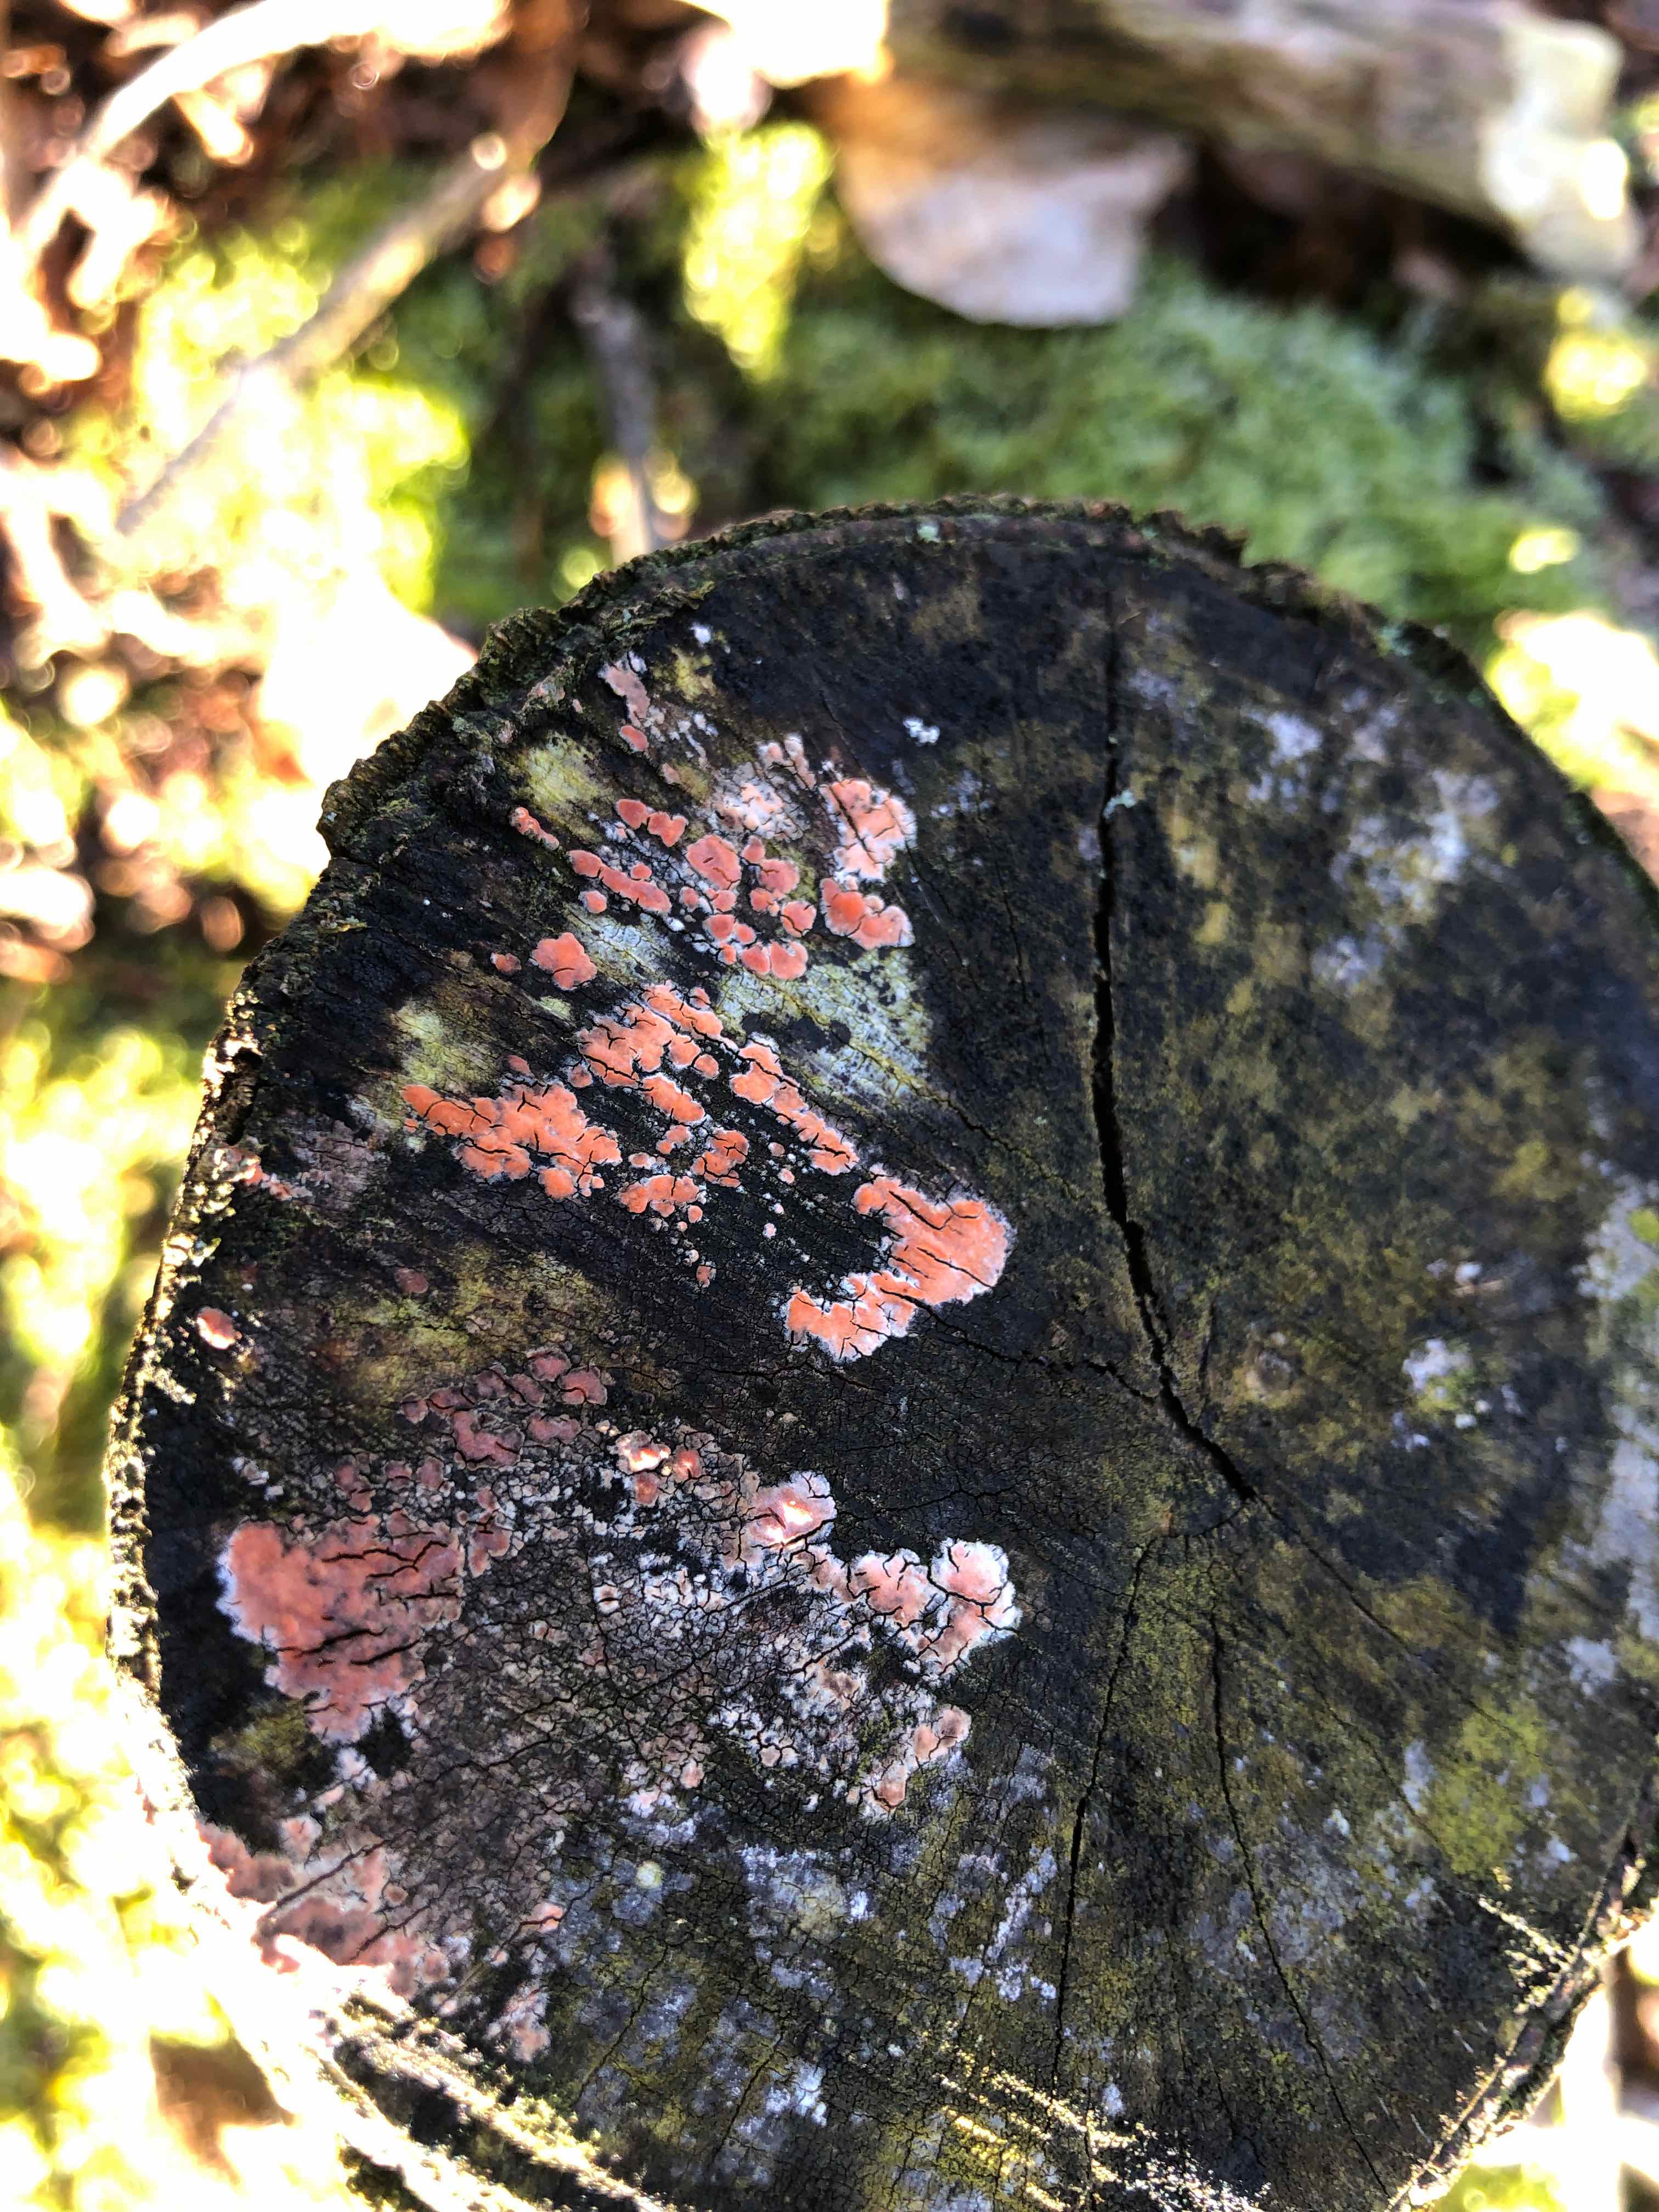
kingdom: Fungi
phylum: Basidiomycota
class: Agaricomycetes
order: Russulales
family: Peniophoraceae
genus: Peniophora
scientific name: Peniophora incarnata
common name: laksefarvet voksskind
